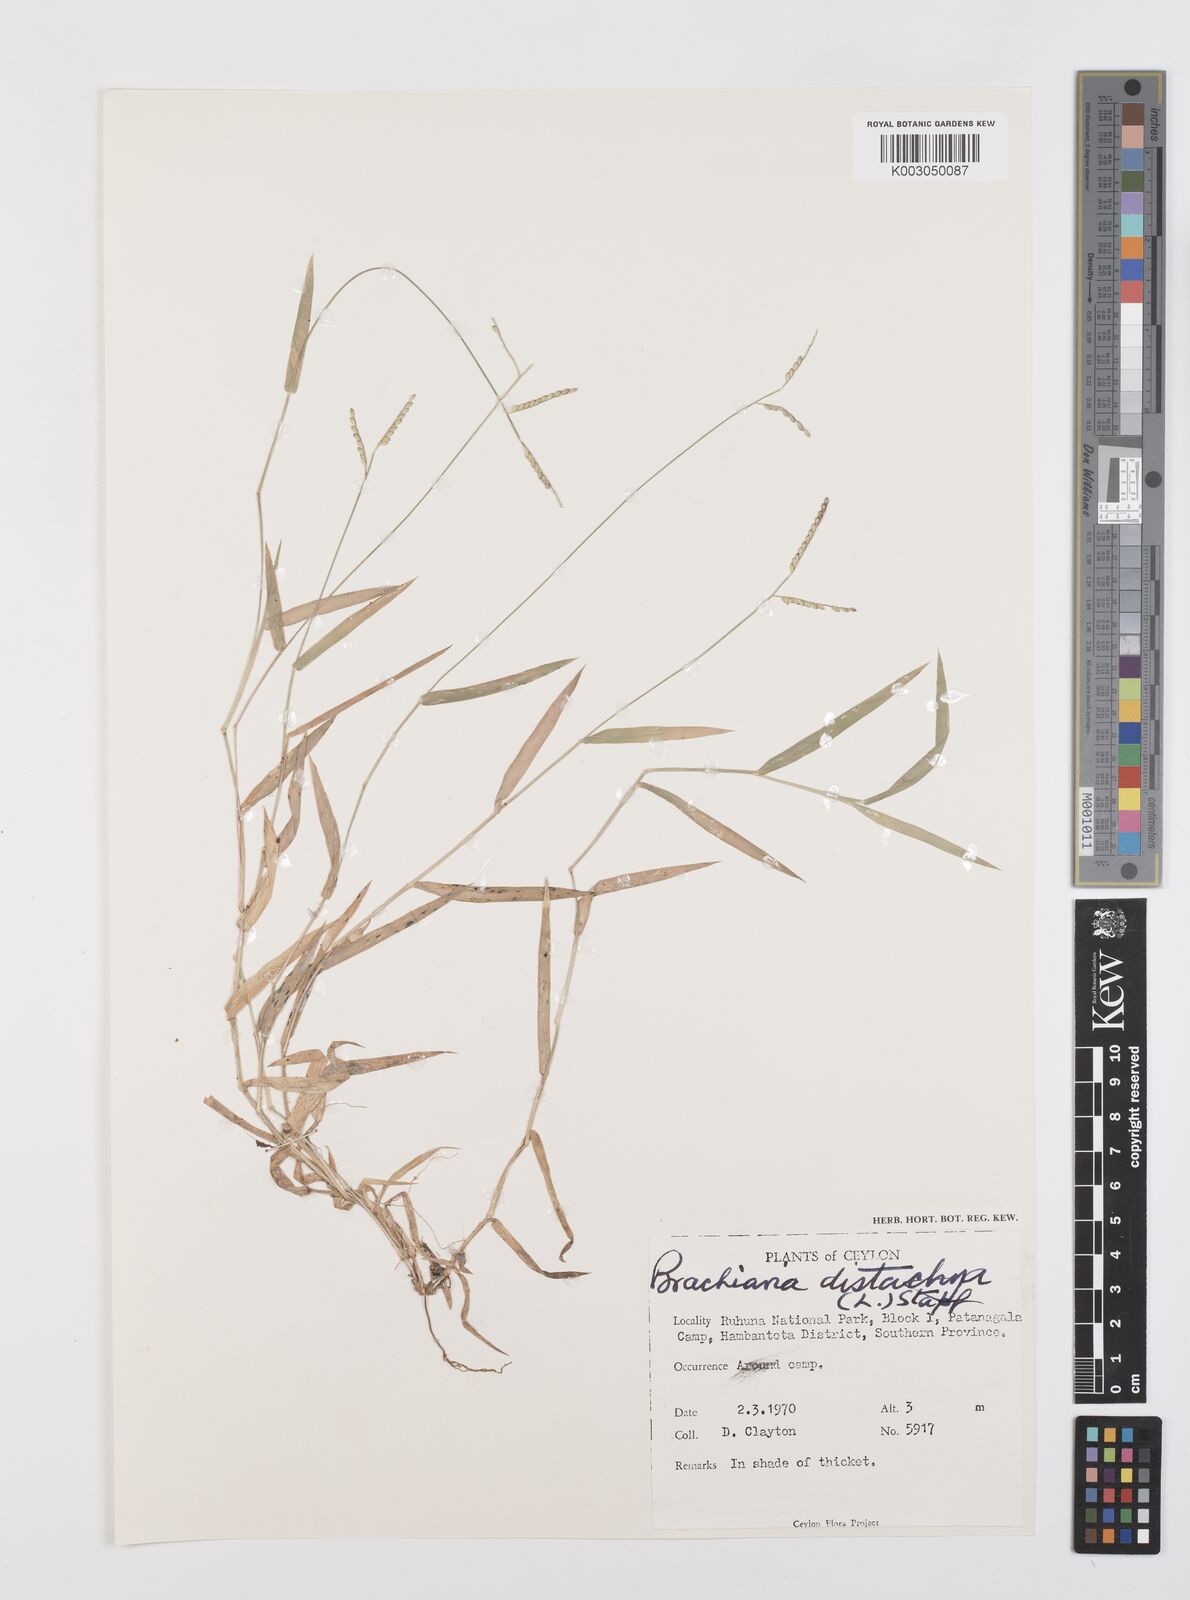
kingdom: Plantae
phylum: Tracheophyta
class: Liliopsida
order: Poales
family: Poaceae
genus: Urochloa
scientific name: Urochloa distachyos
